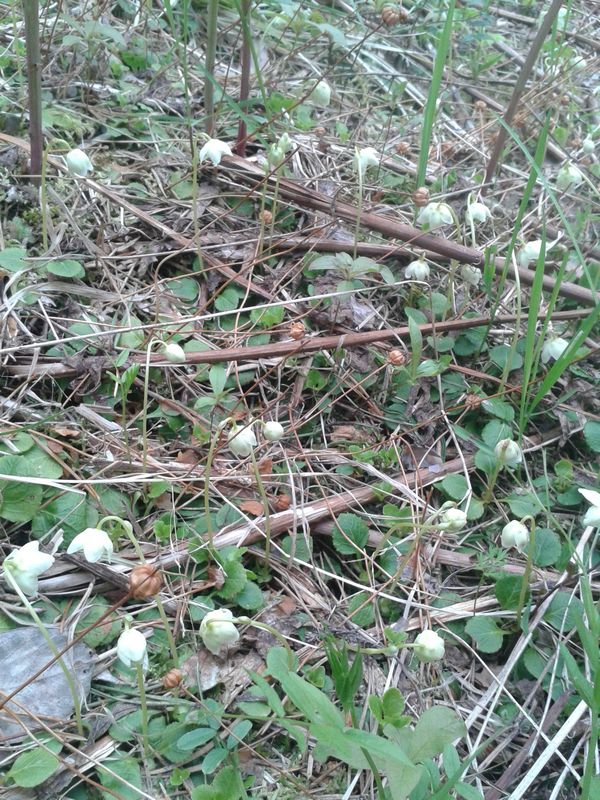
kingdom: Plantae
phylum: Tracheophyta
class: Magnoliopsida
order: Ericales
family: Ericaceae
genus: Moneses
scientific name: Moneses uniflora
